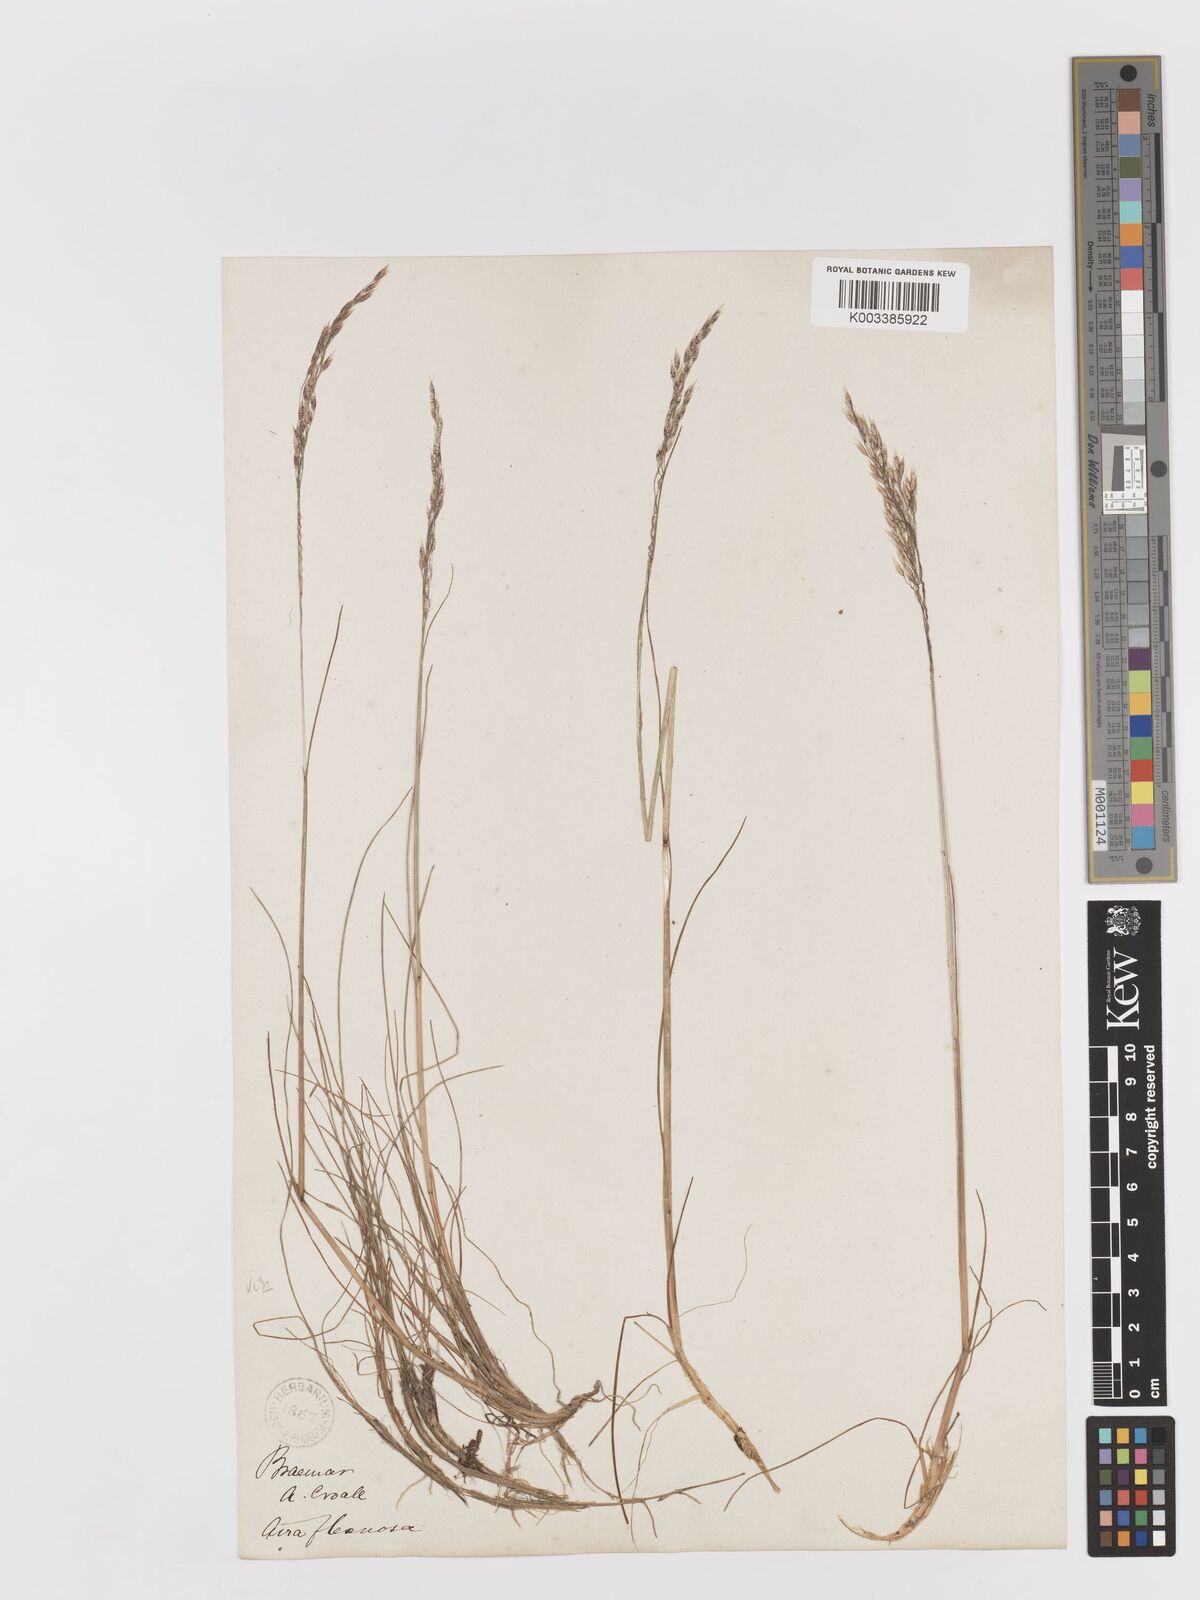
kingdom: Plantae
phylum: Tracheophyta
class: Liliopsida
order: Poales
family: Poaceae
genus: Avenella
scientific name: Avenella flexuosa
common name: Wavy hairgrass
